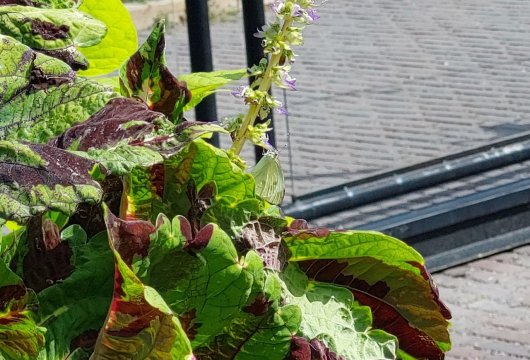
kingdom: Animalia
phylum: Arthropoda
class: Insecta
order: Lepidoptera
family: Pieridae
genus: Pieris
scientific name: Pieris rapae
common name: Cabbage White
